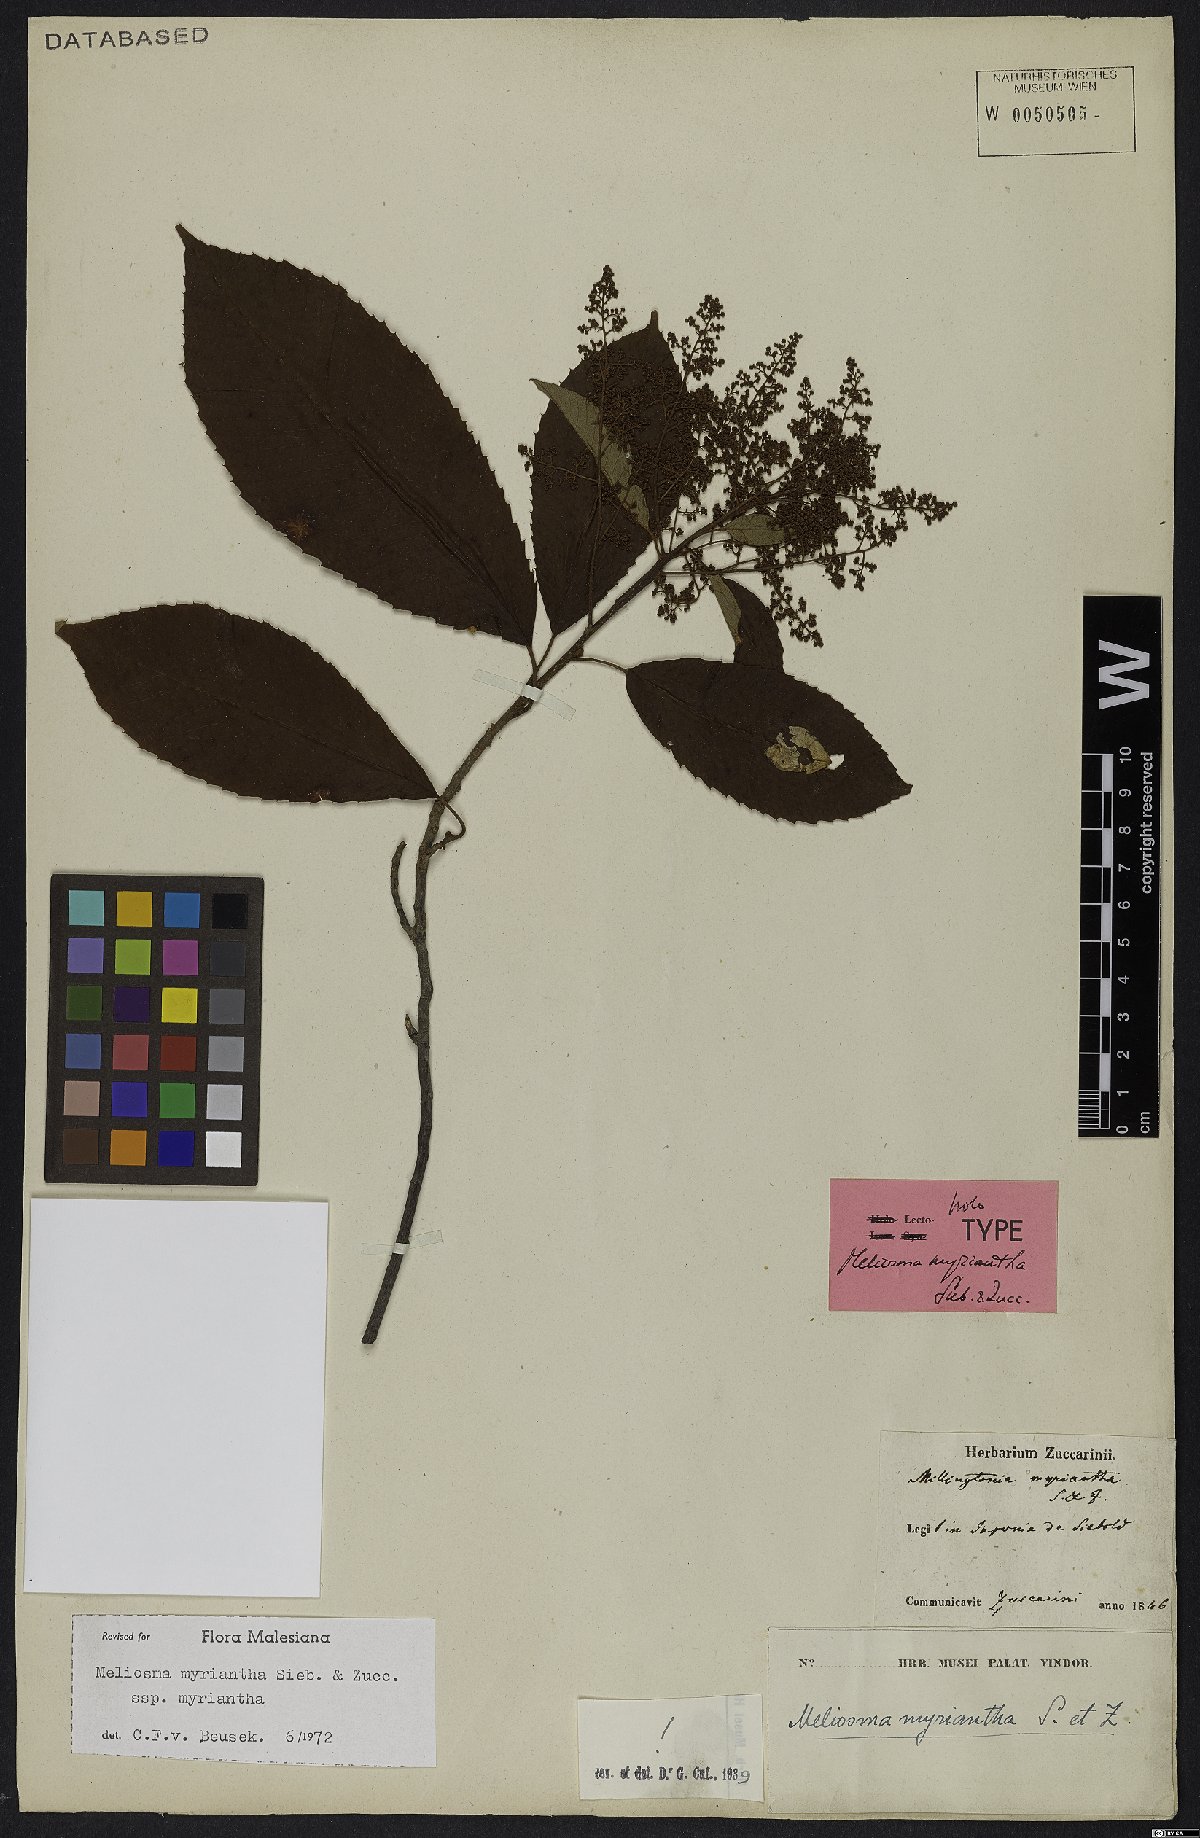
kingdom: Plantae
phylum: Tracheophyta
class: Magnoliopsida
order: Proteales
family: Sabiaceae
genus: Meliosma
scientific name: Meliosma myriantha
